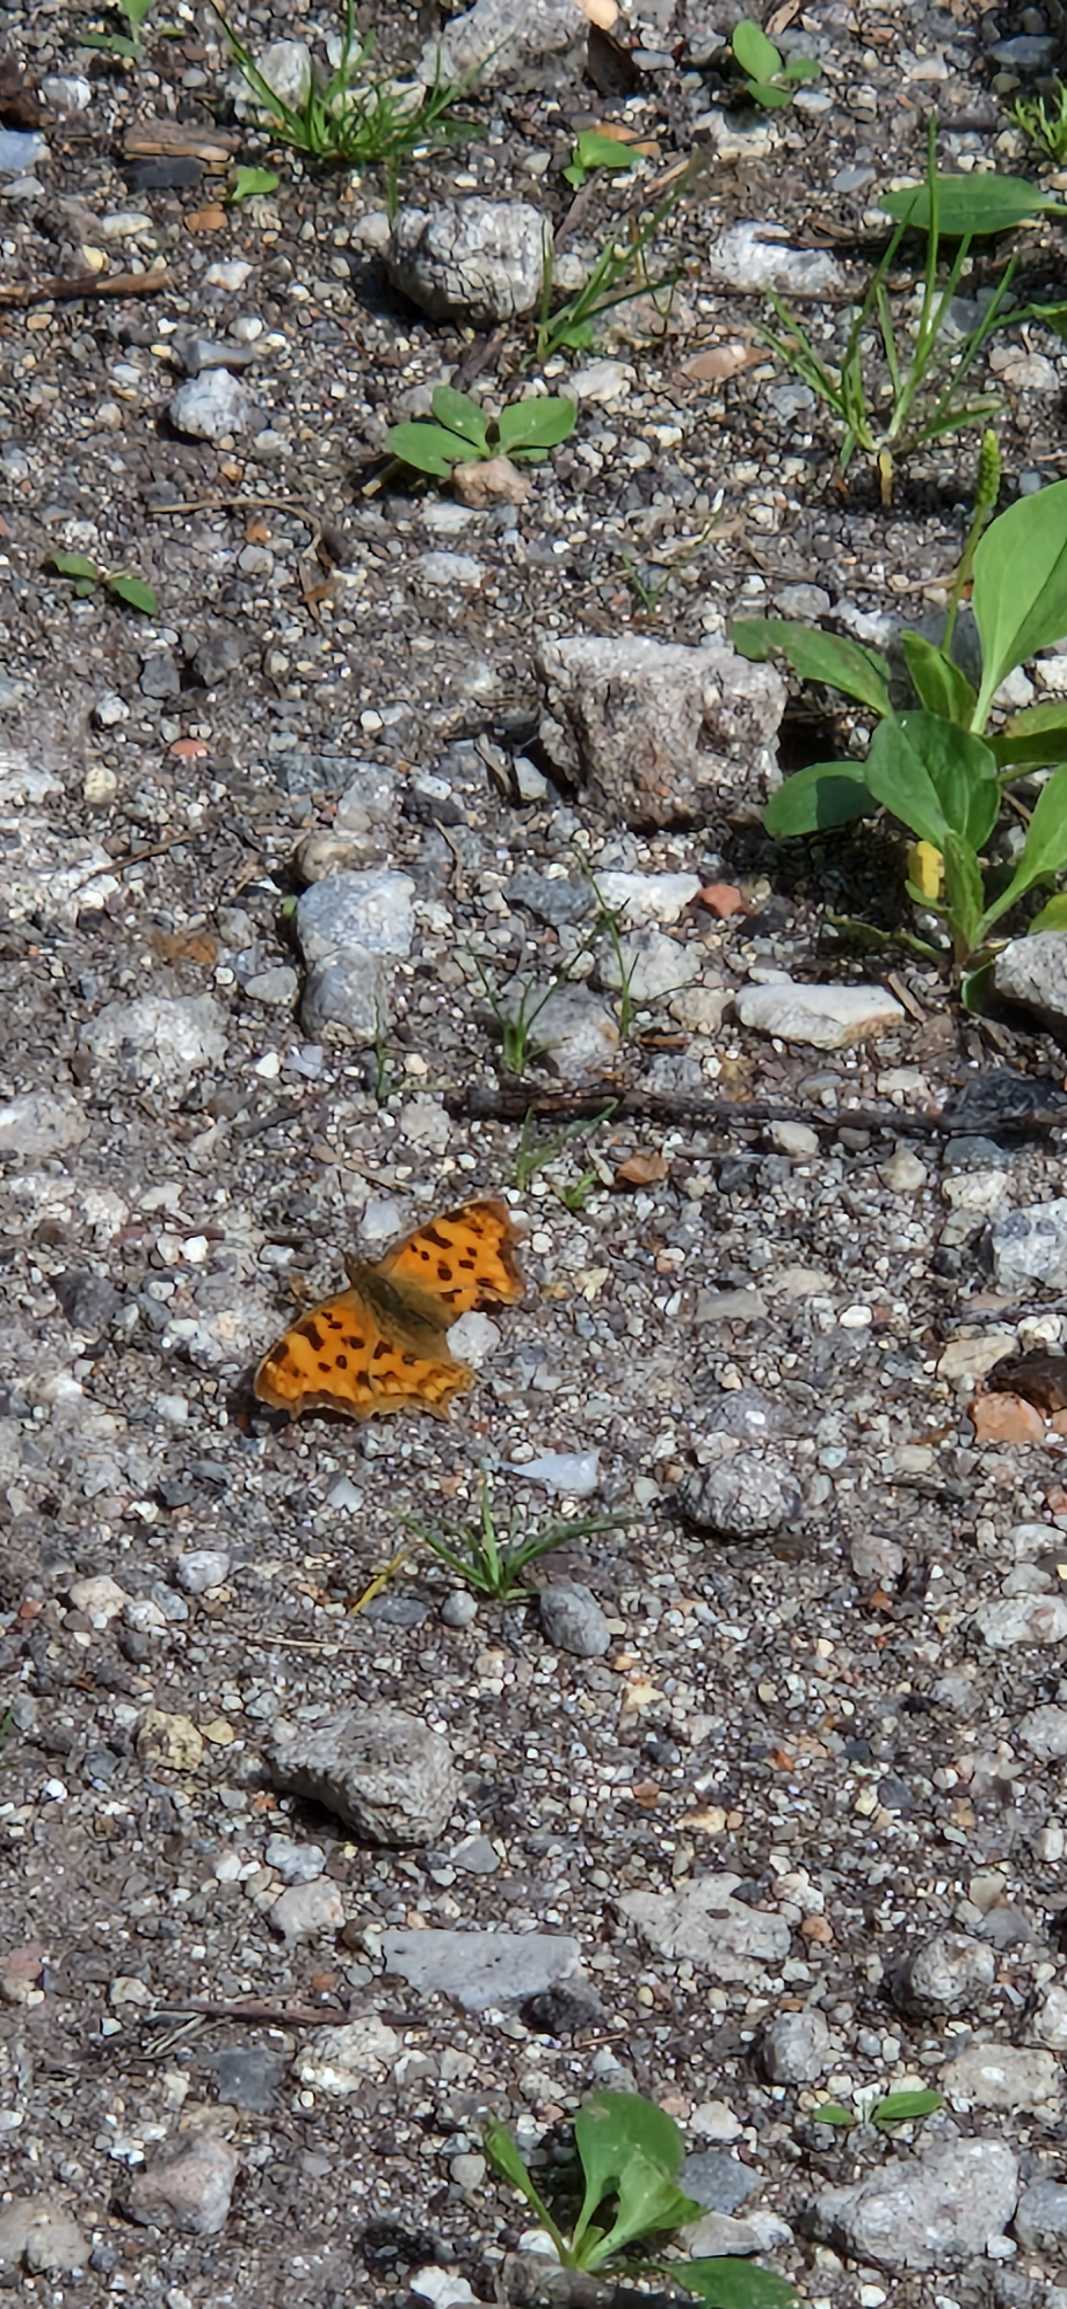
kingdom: Animalia
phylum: Arthropoda
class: Insecta
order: Lepidoptera
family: Nymphalidae
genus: Polygonia
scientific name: Polygonia c-album
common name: Det hvide C
